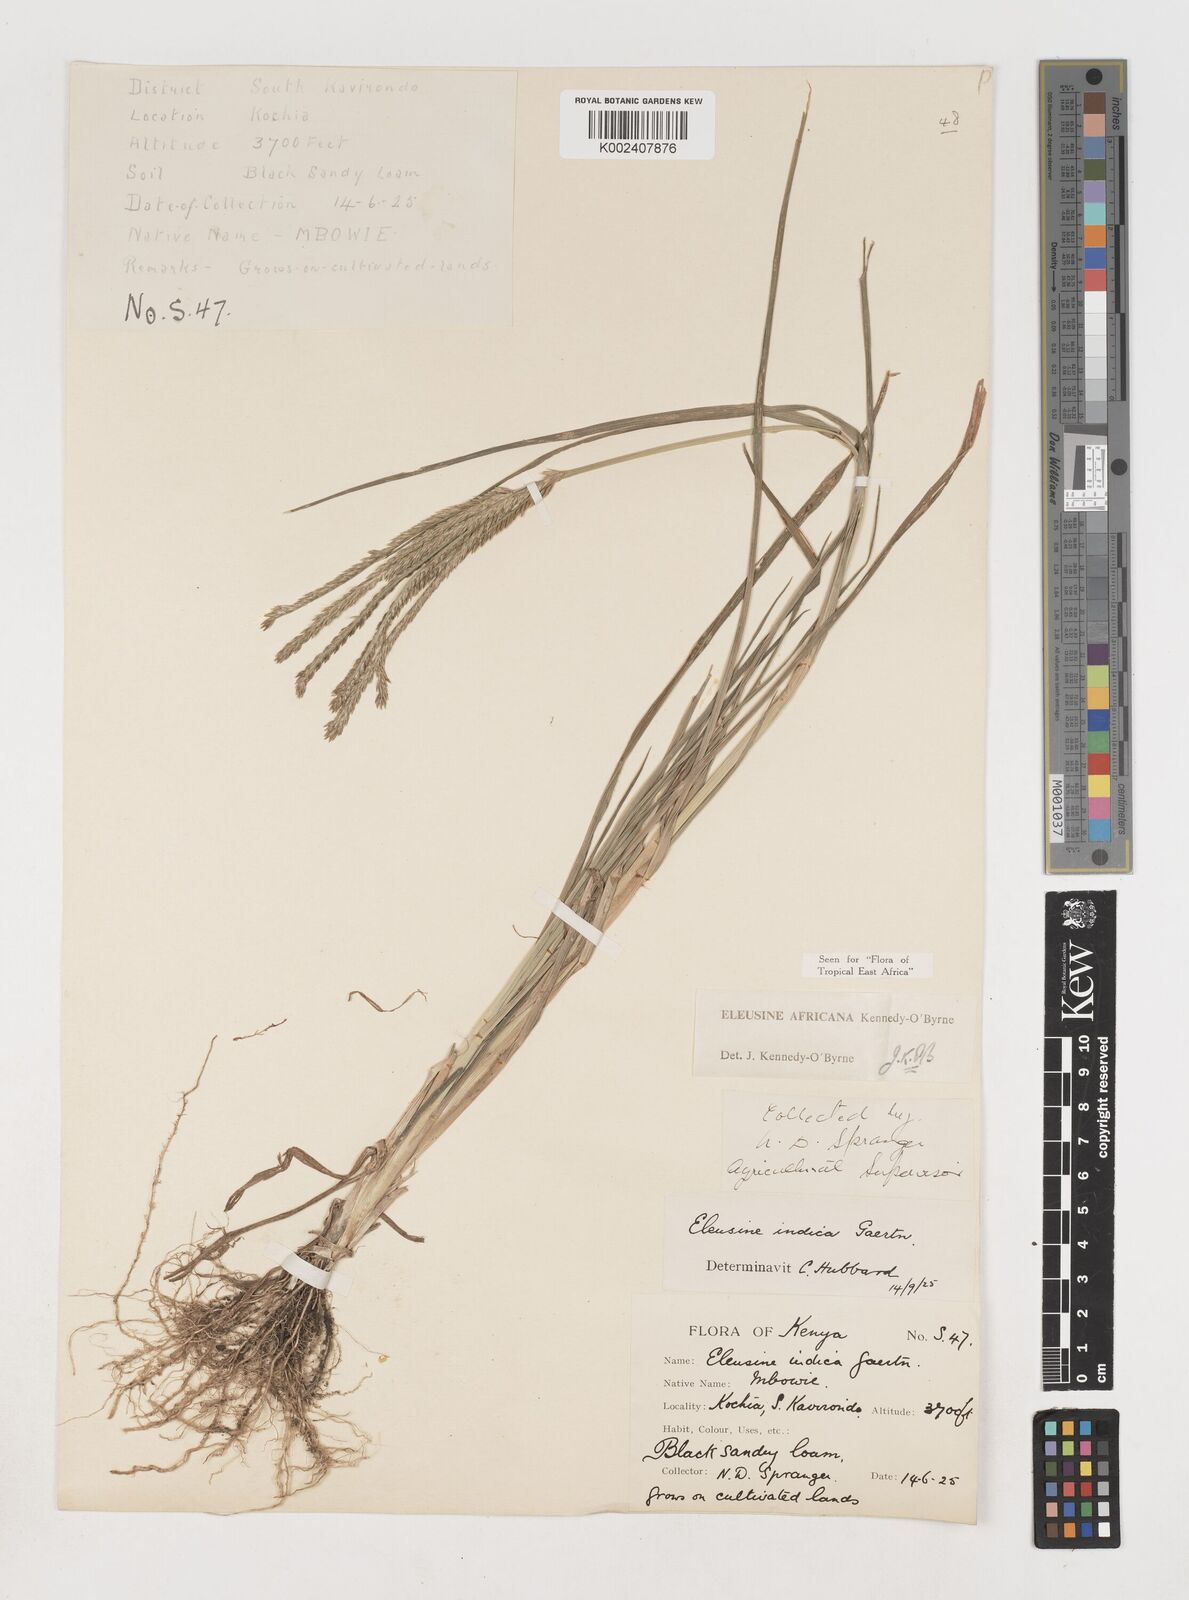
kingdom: Plantae
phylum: Tracheophyta
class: Liliopsida
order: Poales
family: Poaceae
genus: Eleusine
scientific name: Eleusine africana
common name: Wild african finger millet
